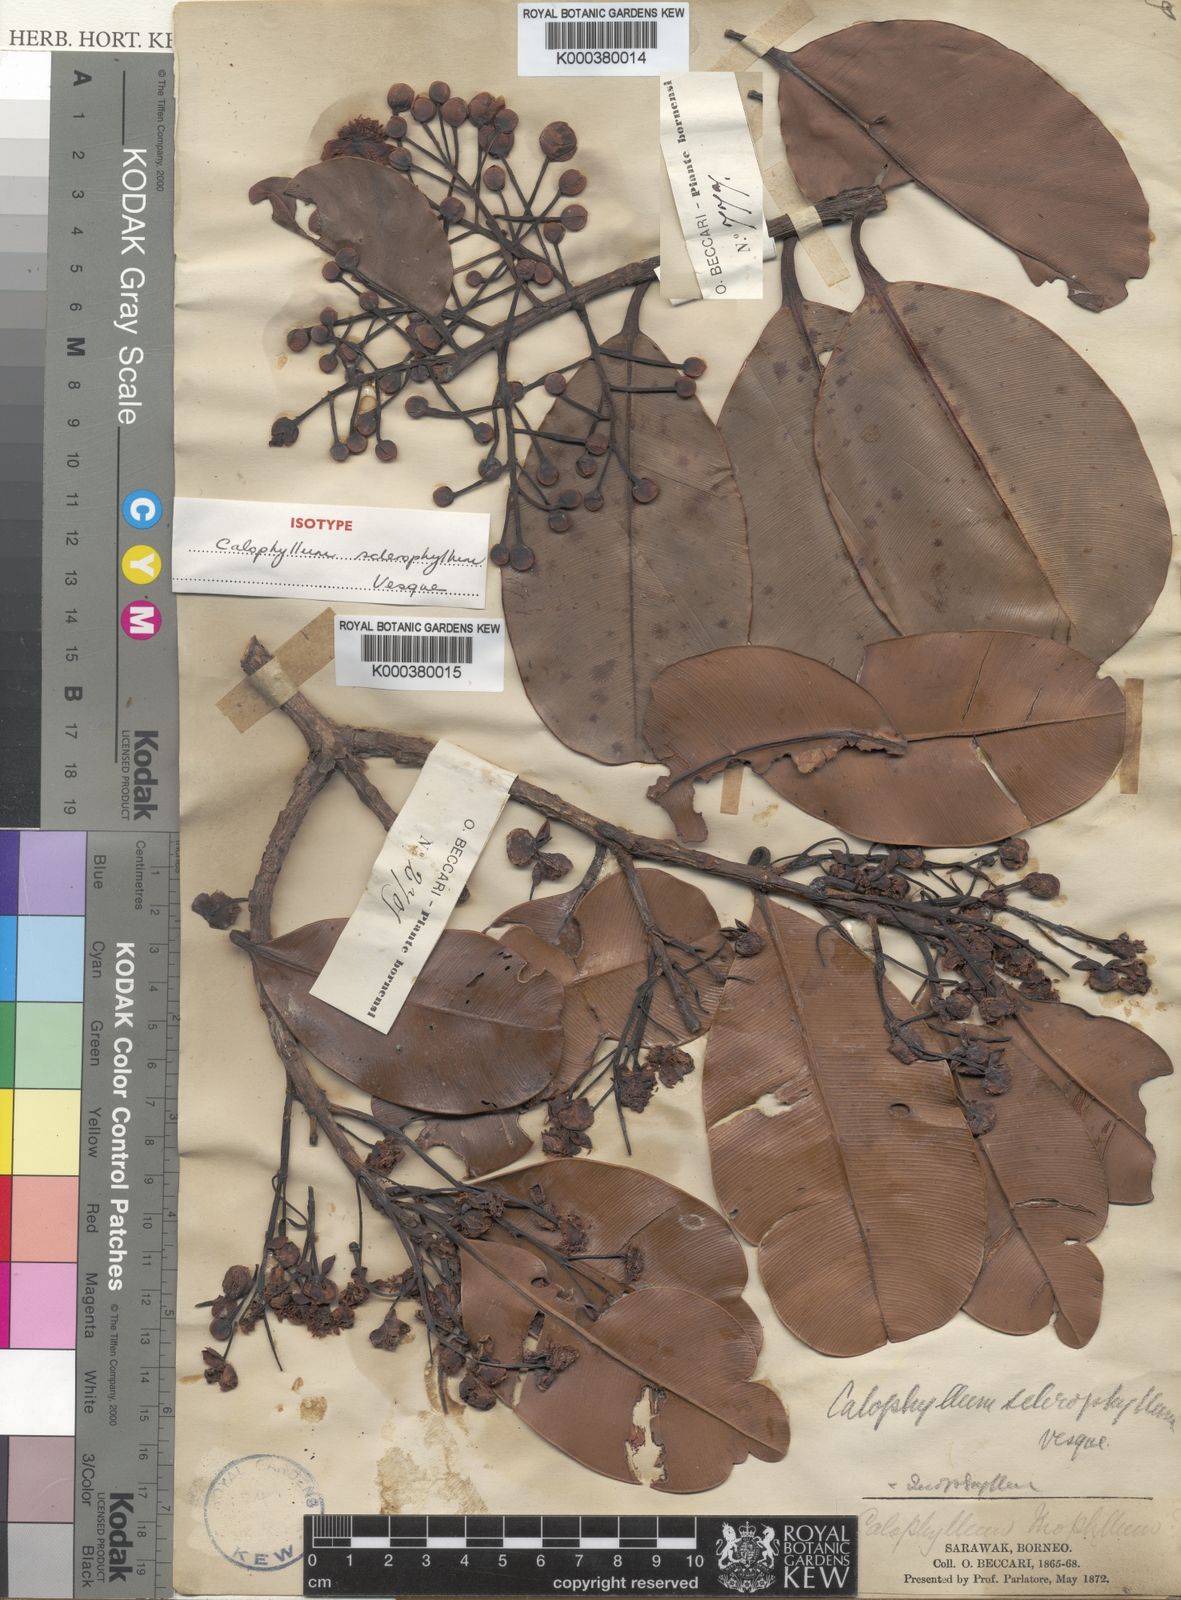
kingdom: Plantae
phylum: Tracheophyta
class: Magnoliopsida
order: Malpighiales
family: Calophyllaceae
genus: Calophyllum
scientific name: Calophyllum sclerophyllum
